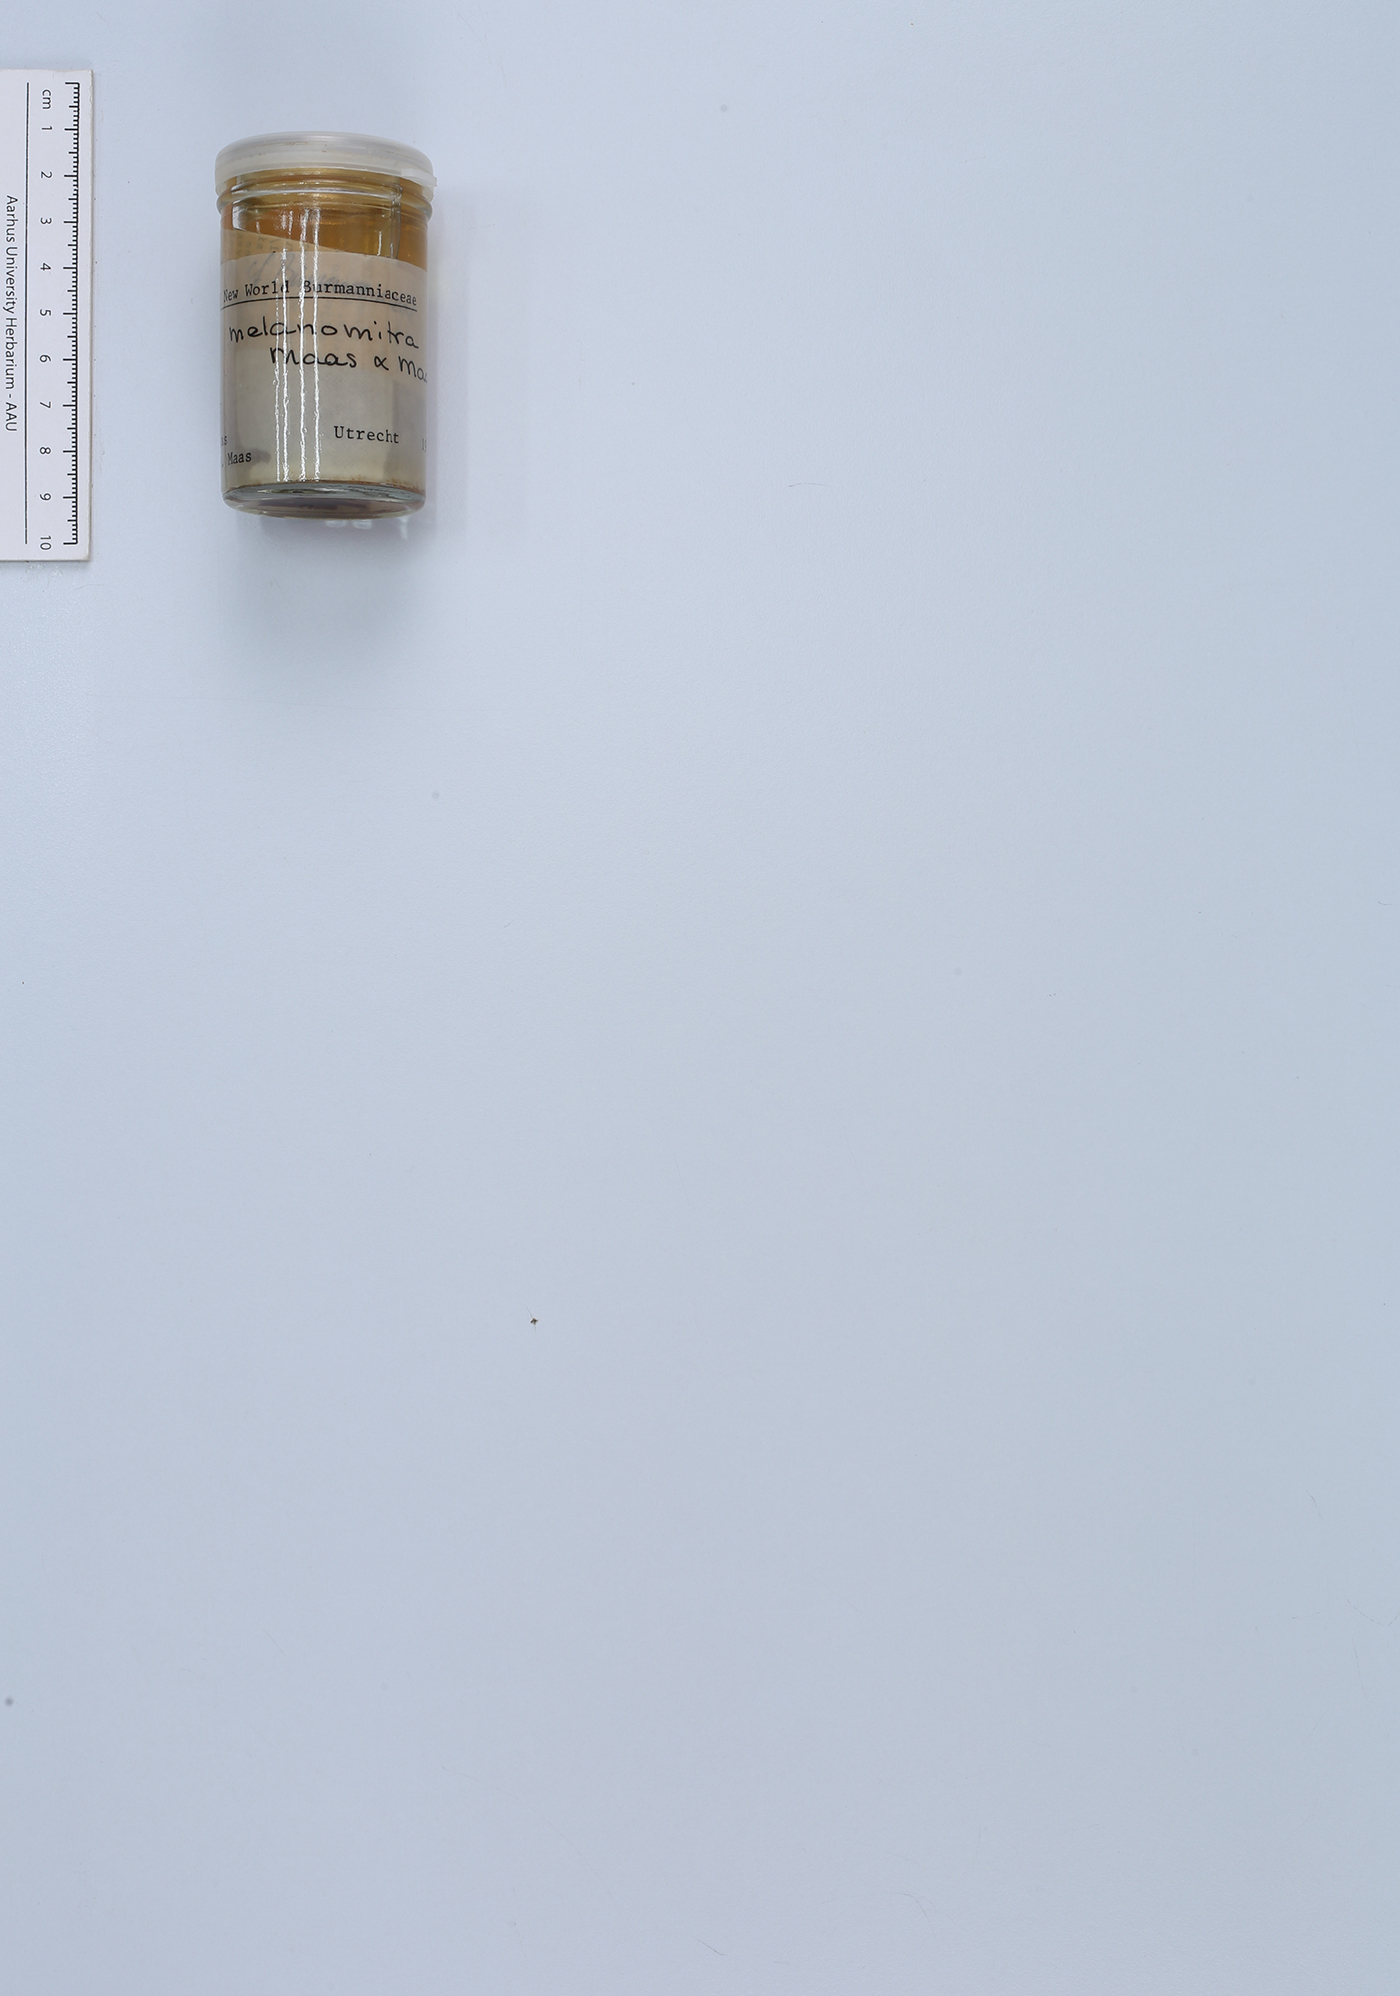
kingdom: Plantae
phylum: Tracheophyta
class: Liliopsida
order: Dioscoreales
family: Burmanniaceae
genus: Thismia
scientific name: Thismia melanomitra
